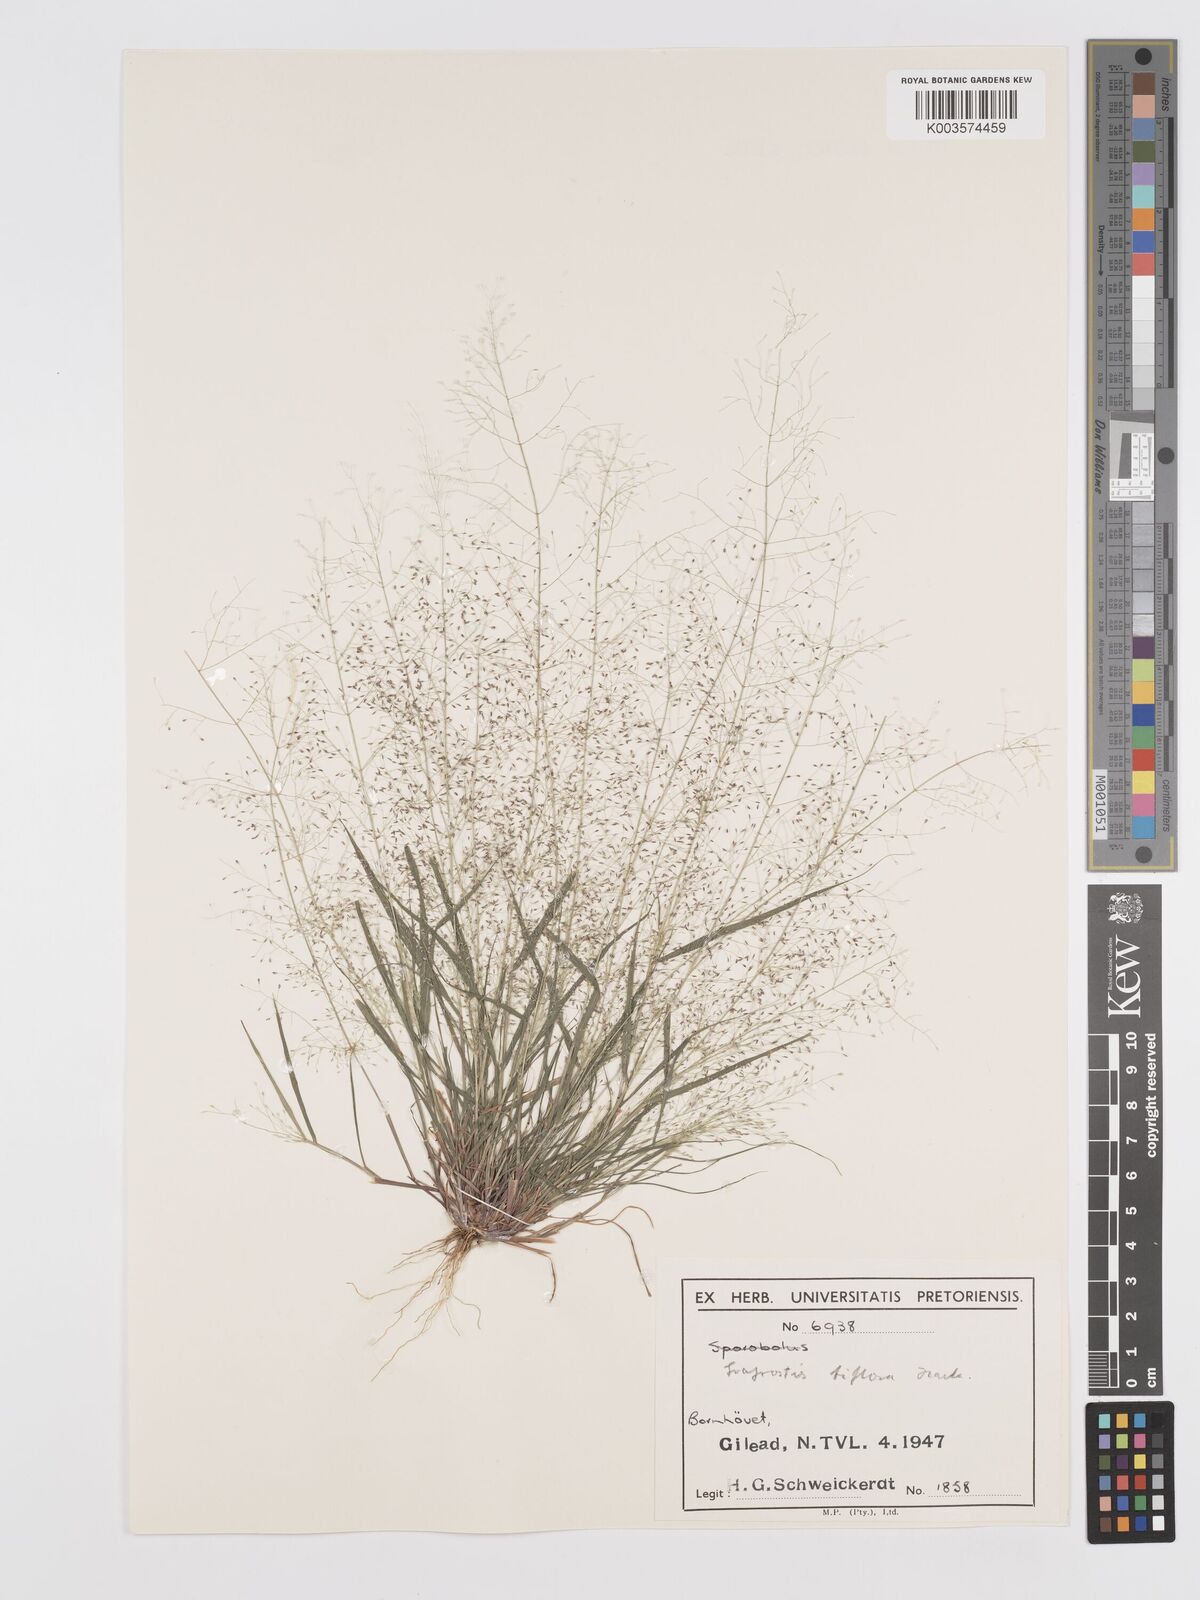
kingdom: Plantae
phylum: Tracheophyta
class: Liliopsida
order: Poales
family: Poaceae
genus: Eragrostis
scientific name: Eragrostis biflora
